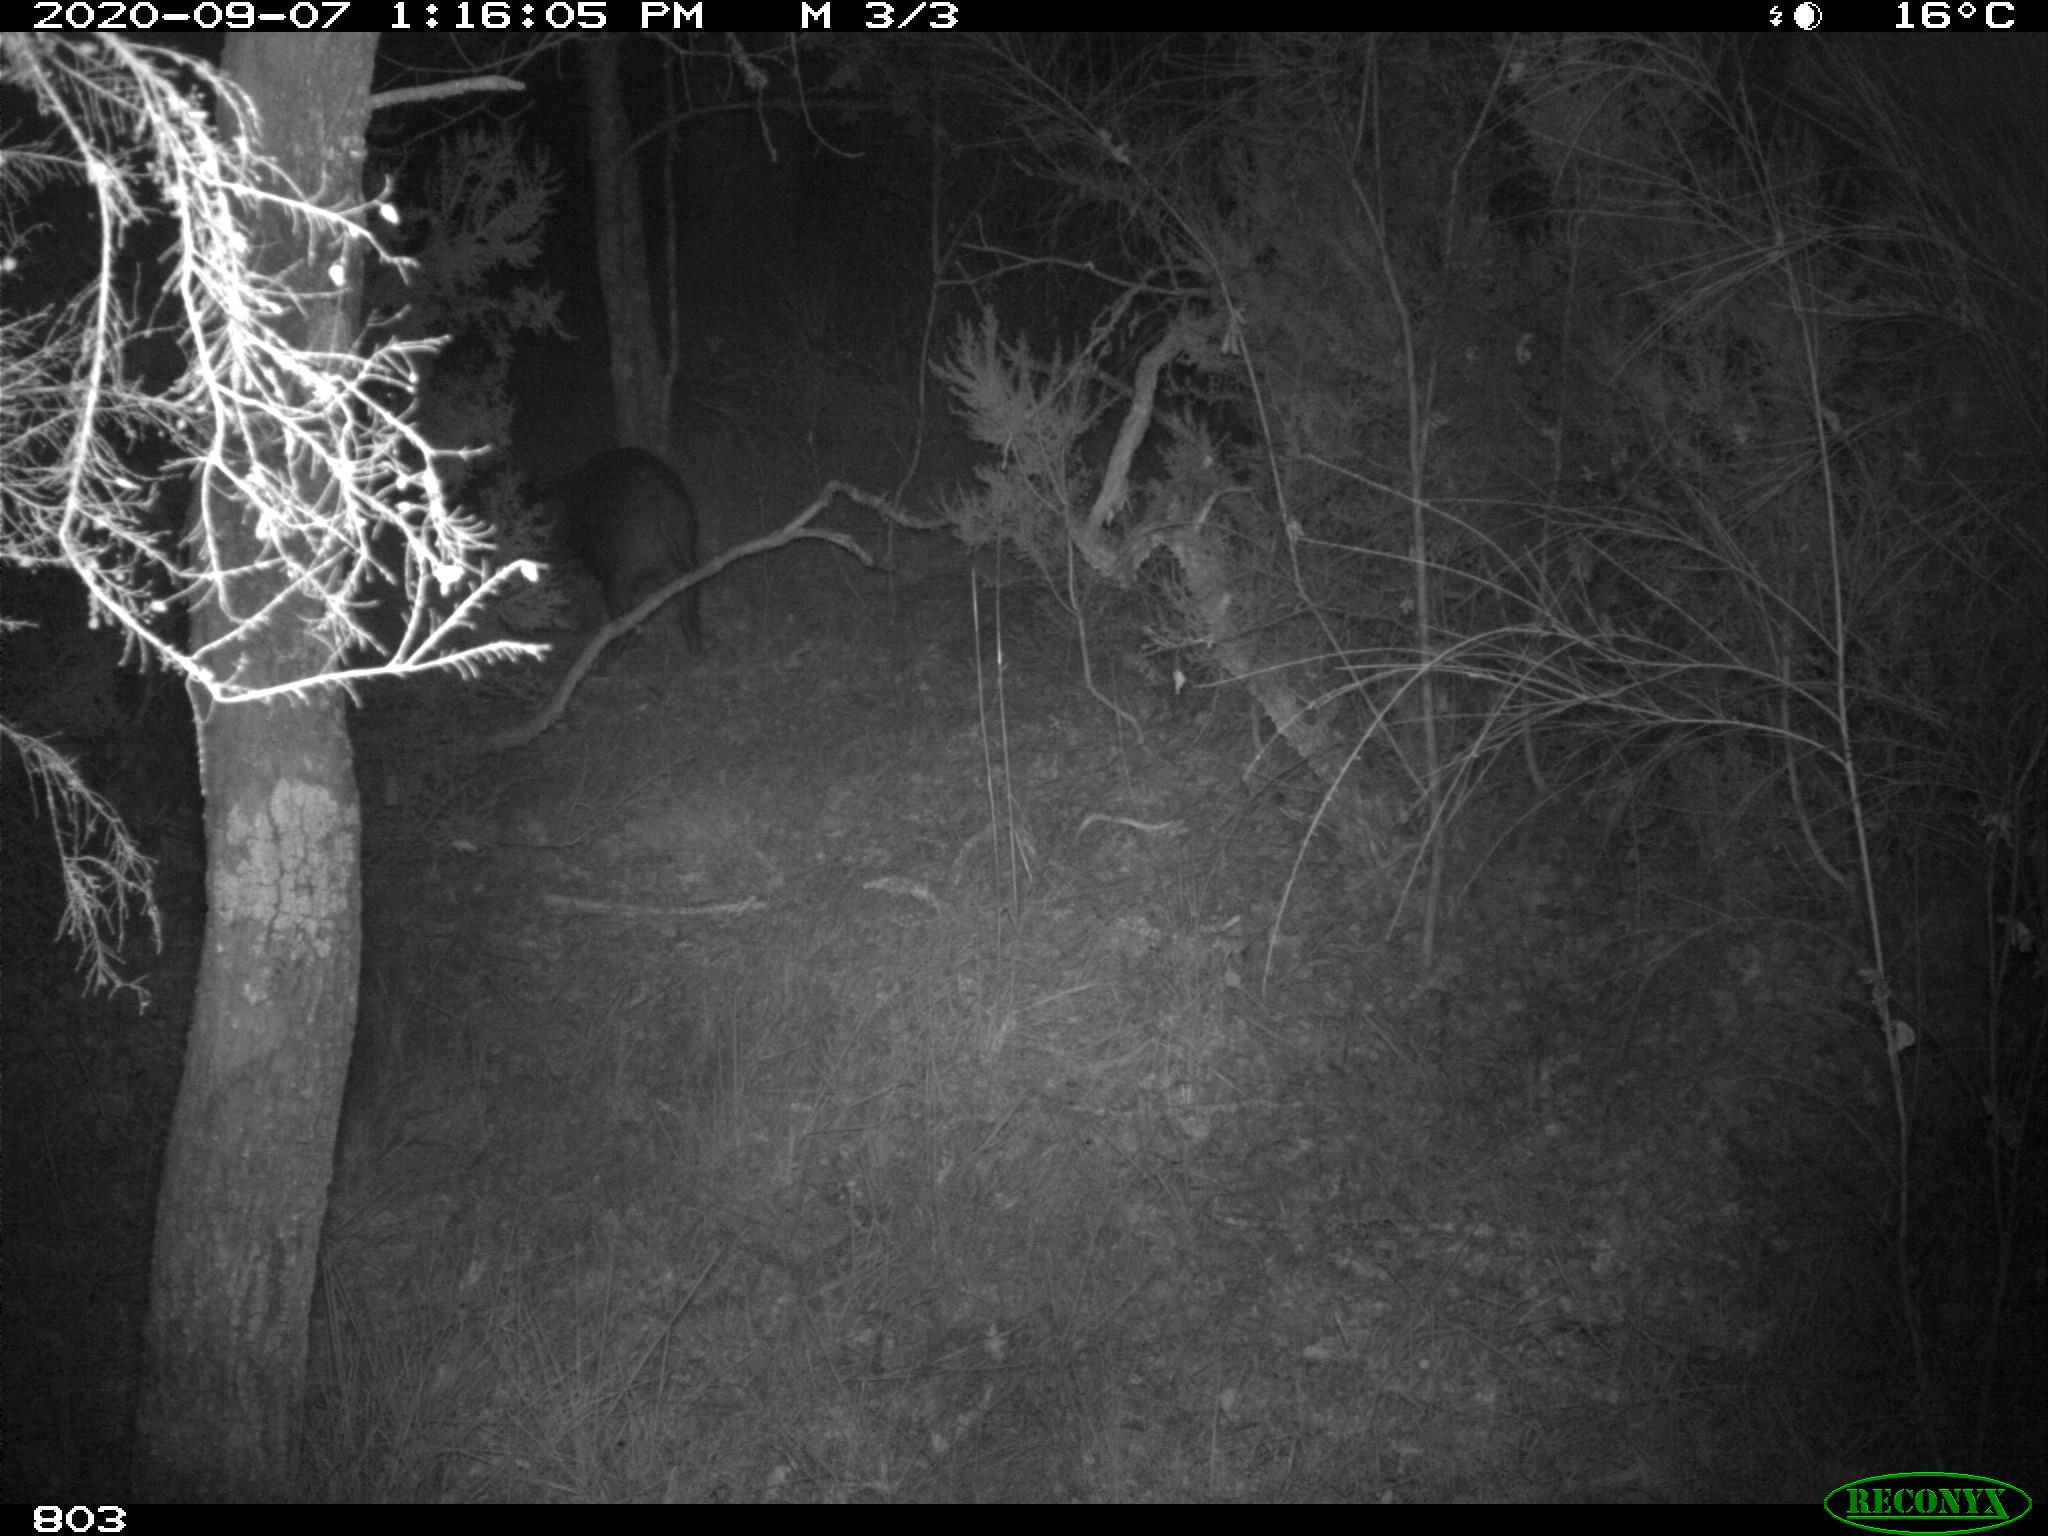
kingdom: Animalia
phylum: Chordata
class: Mammalia
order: Artiodactyla
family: Suidae
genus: Sus
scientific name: Sus scrofa
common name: Wild boar
